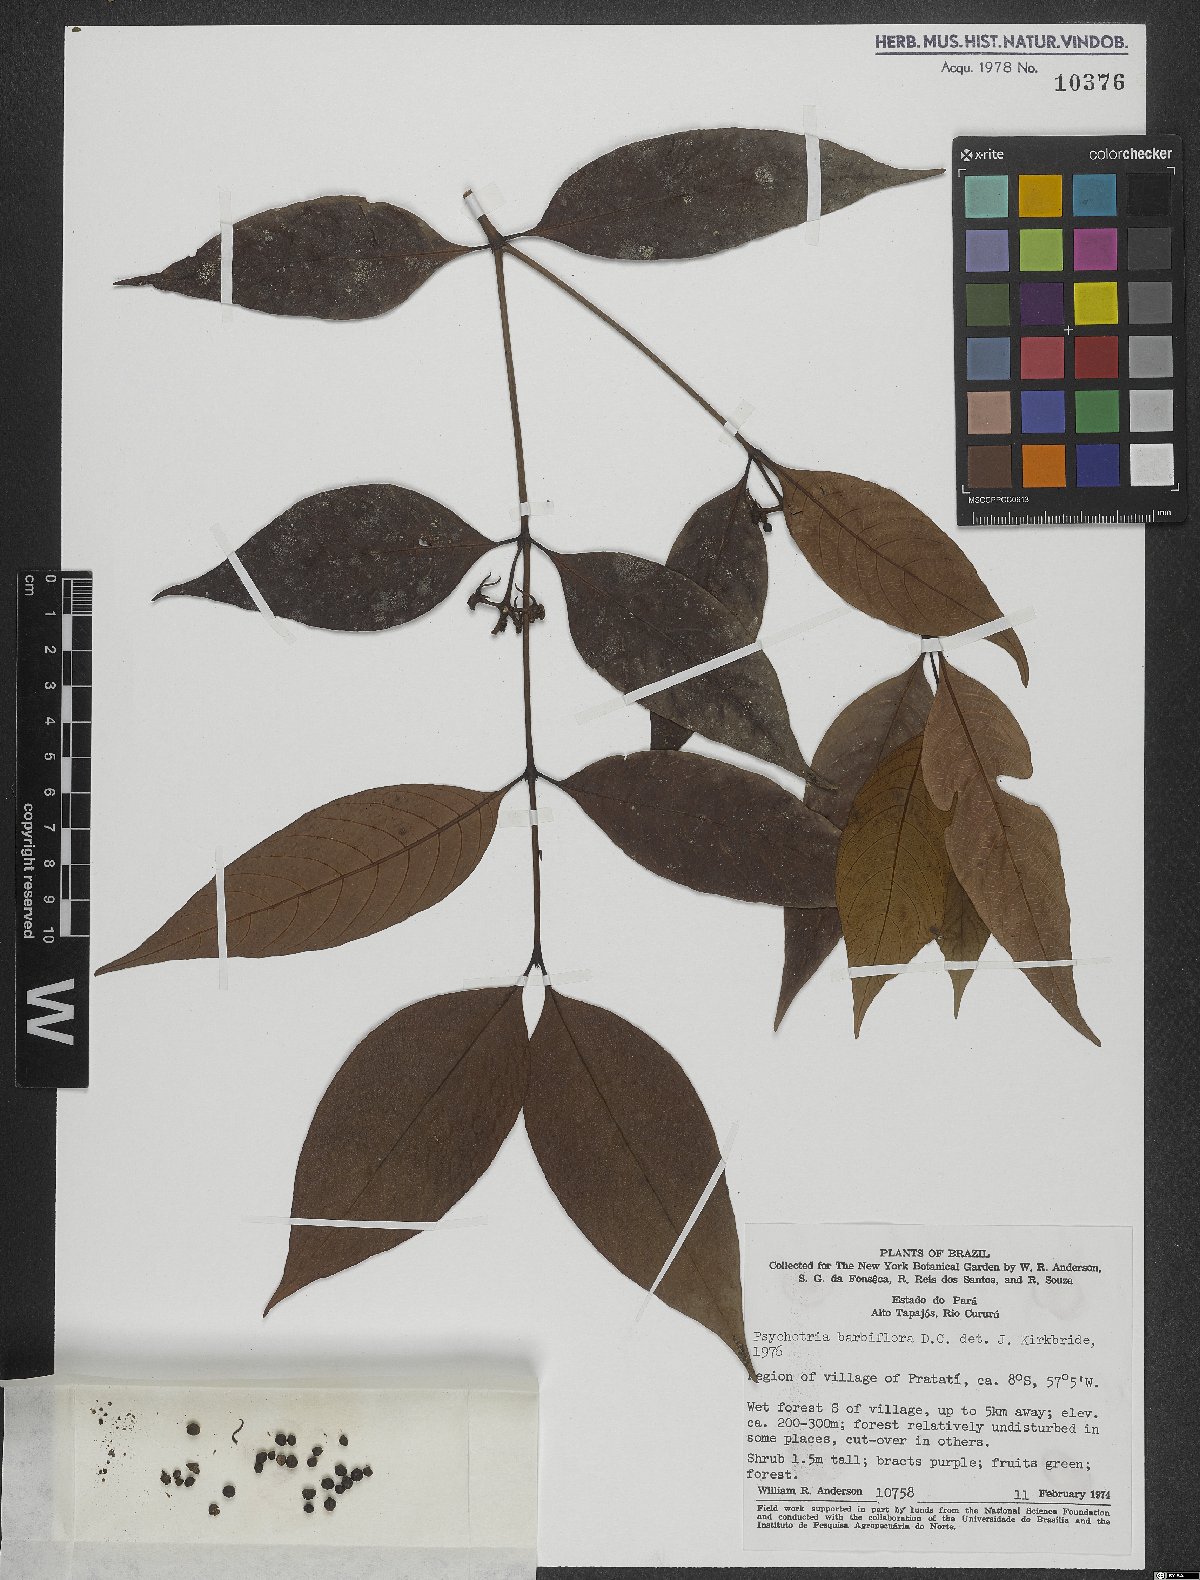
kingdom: Plantae
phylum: Tracheophyta
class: Magnoliopsida
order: Gentianales
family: Rubiaceae
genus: Palicourea
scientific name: Palicourea hoffmannseggiana
